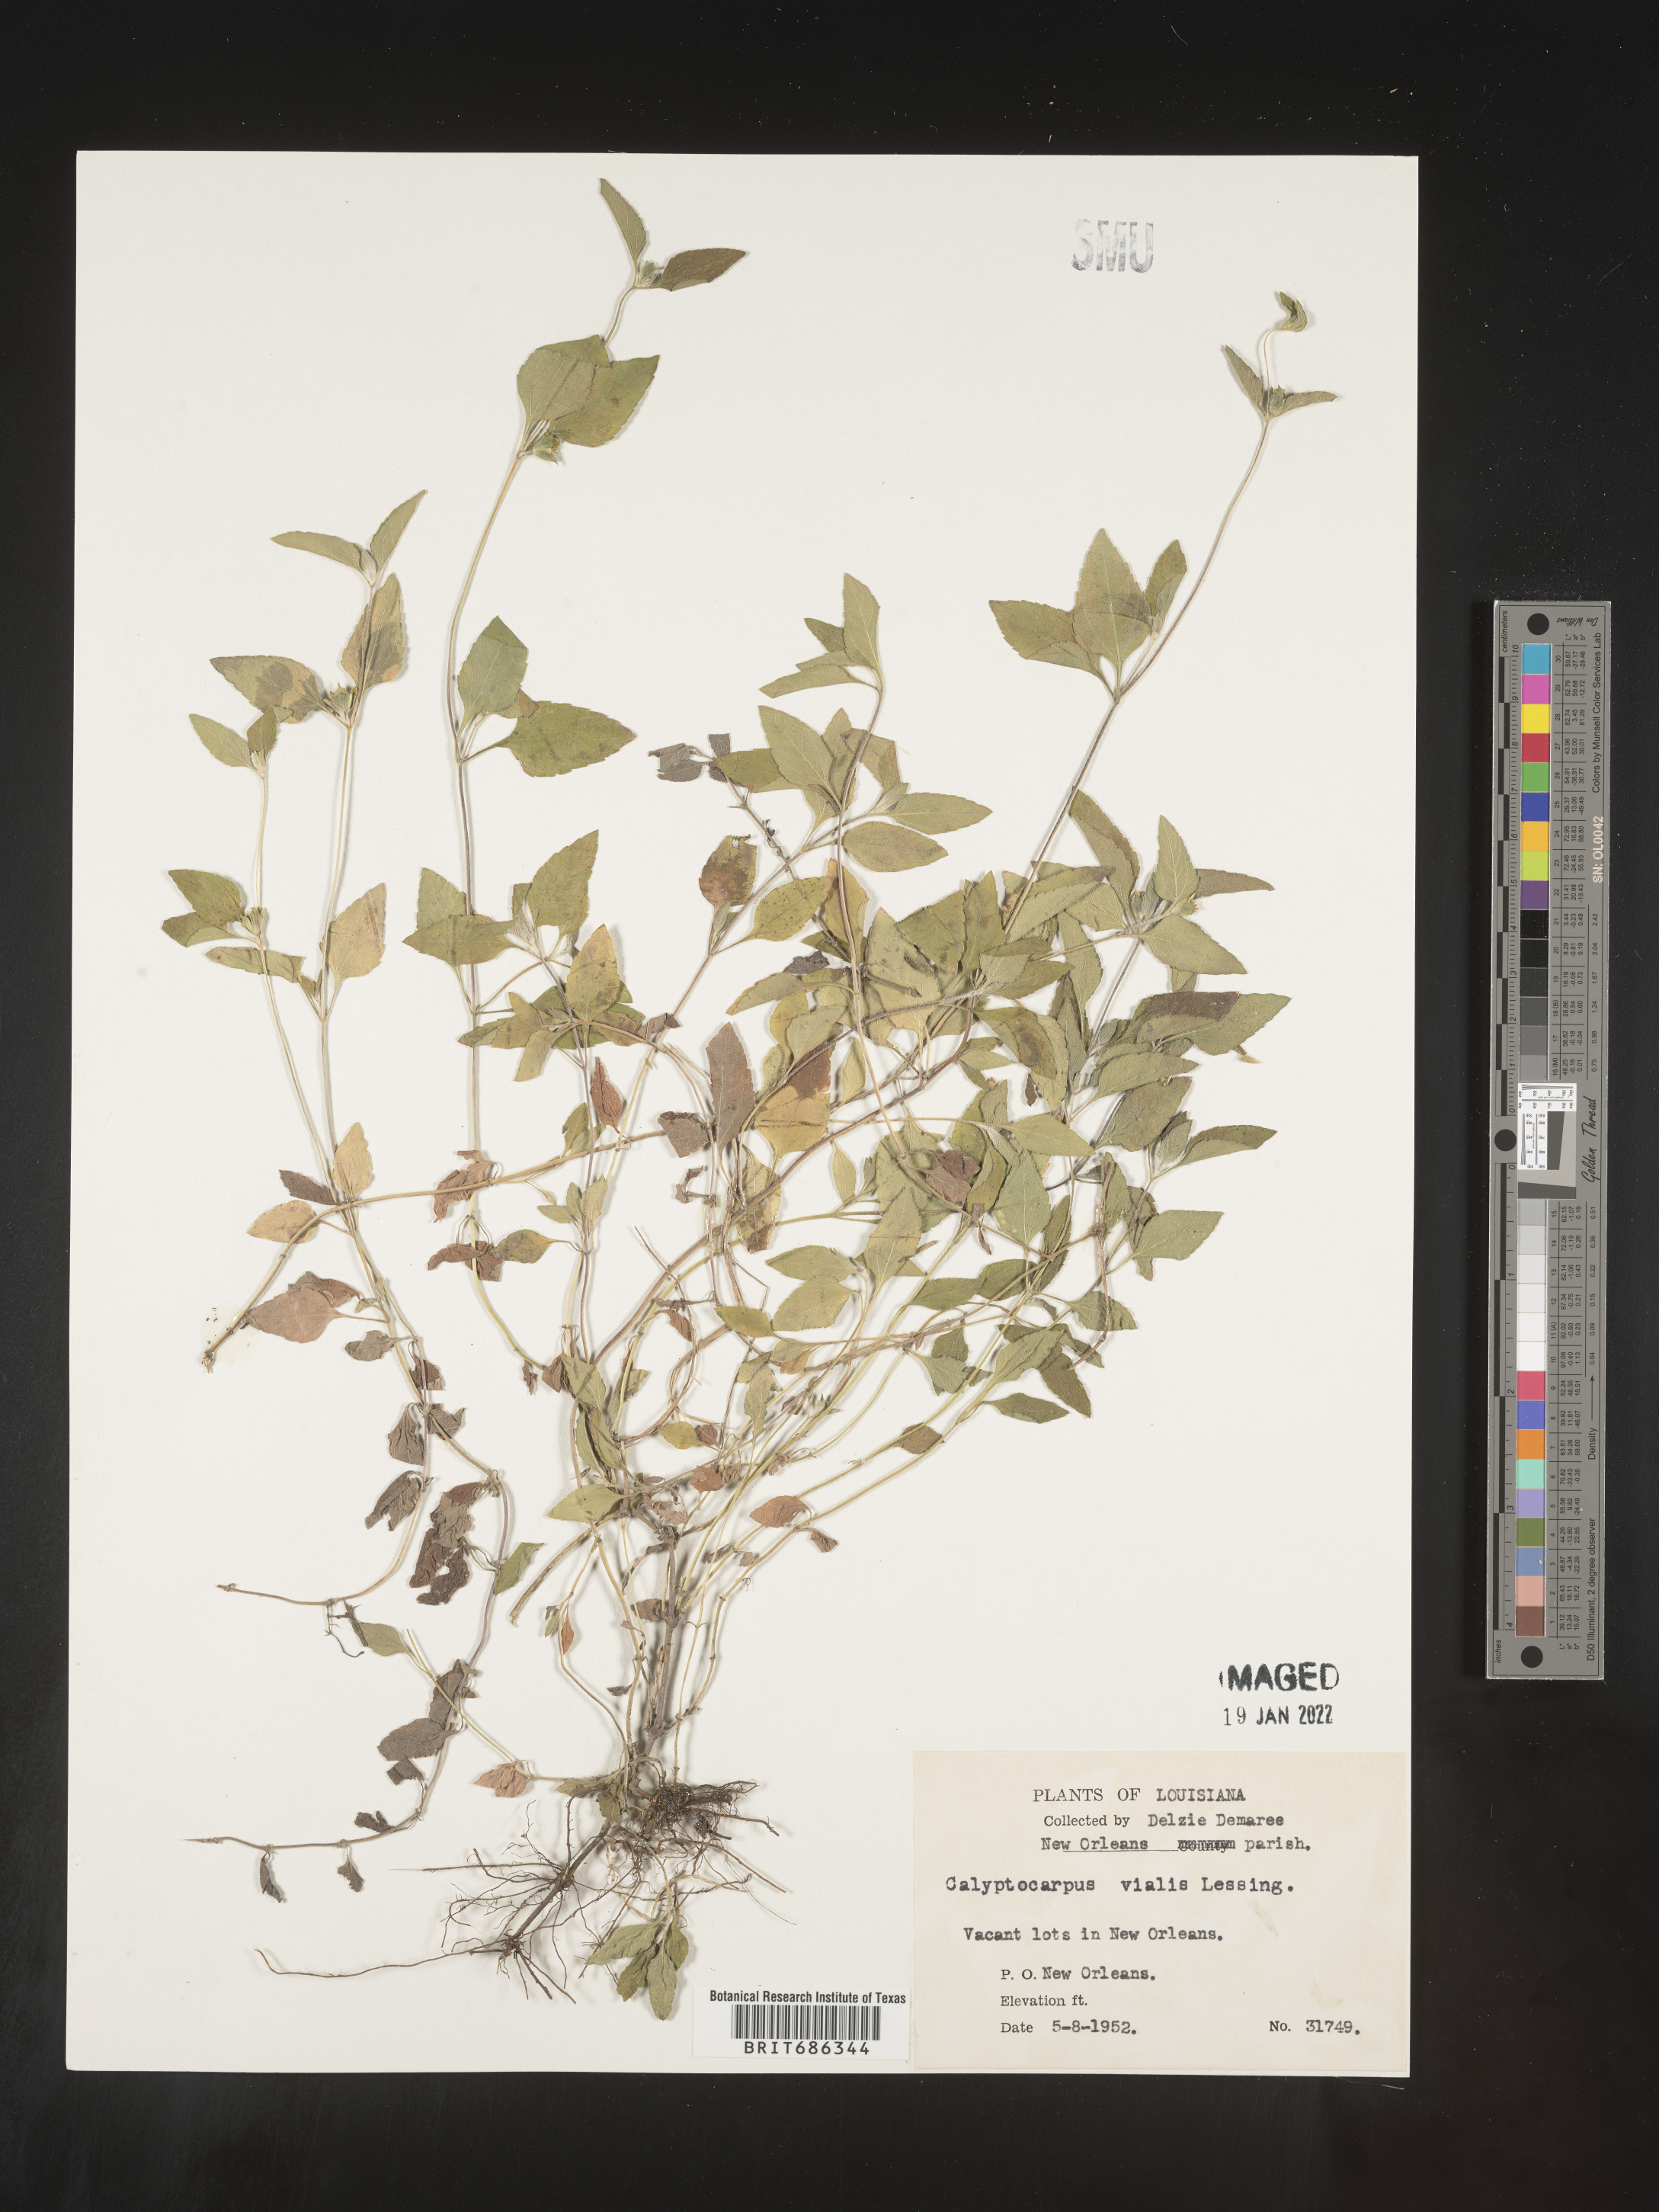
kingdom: Plantae
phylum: Tracheophyta
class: Magnoliopsida
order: Asterales
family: Asteraceae
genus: Calyptocarpus
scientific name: Calyptocarpus
